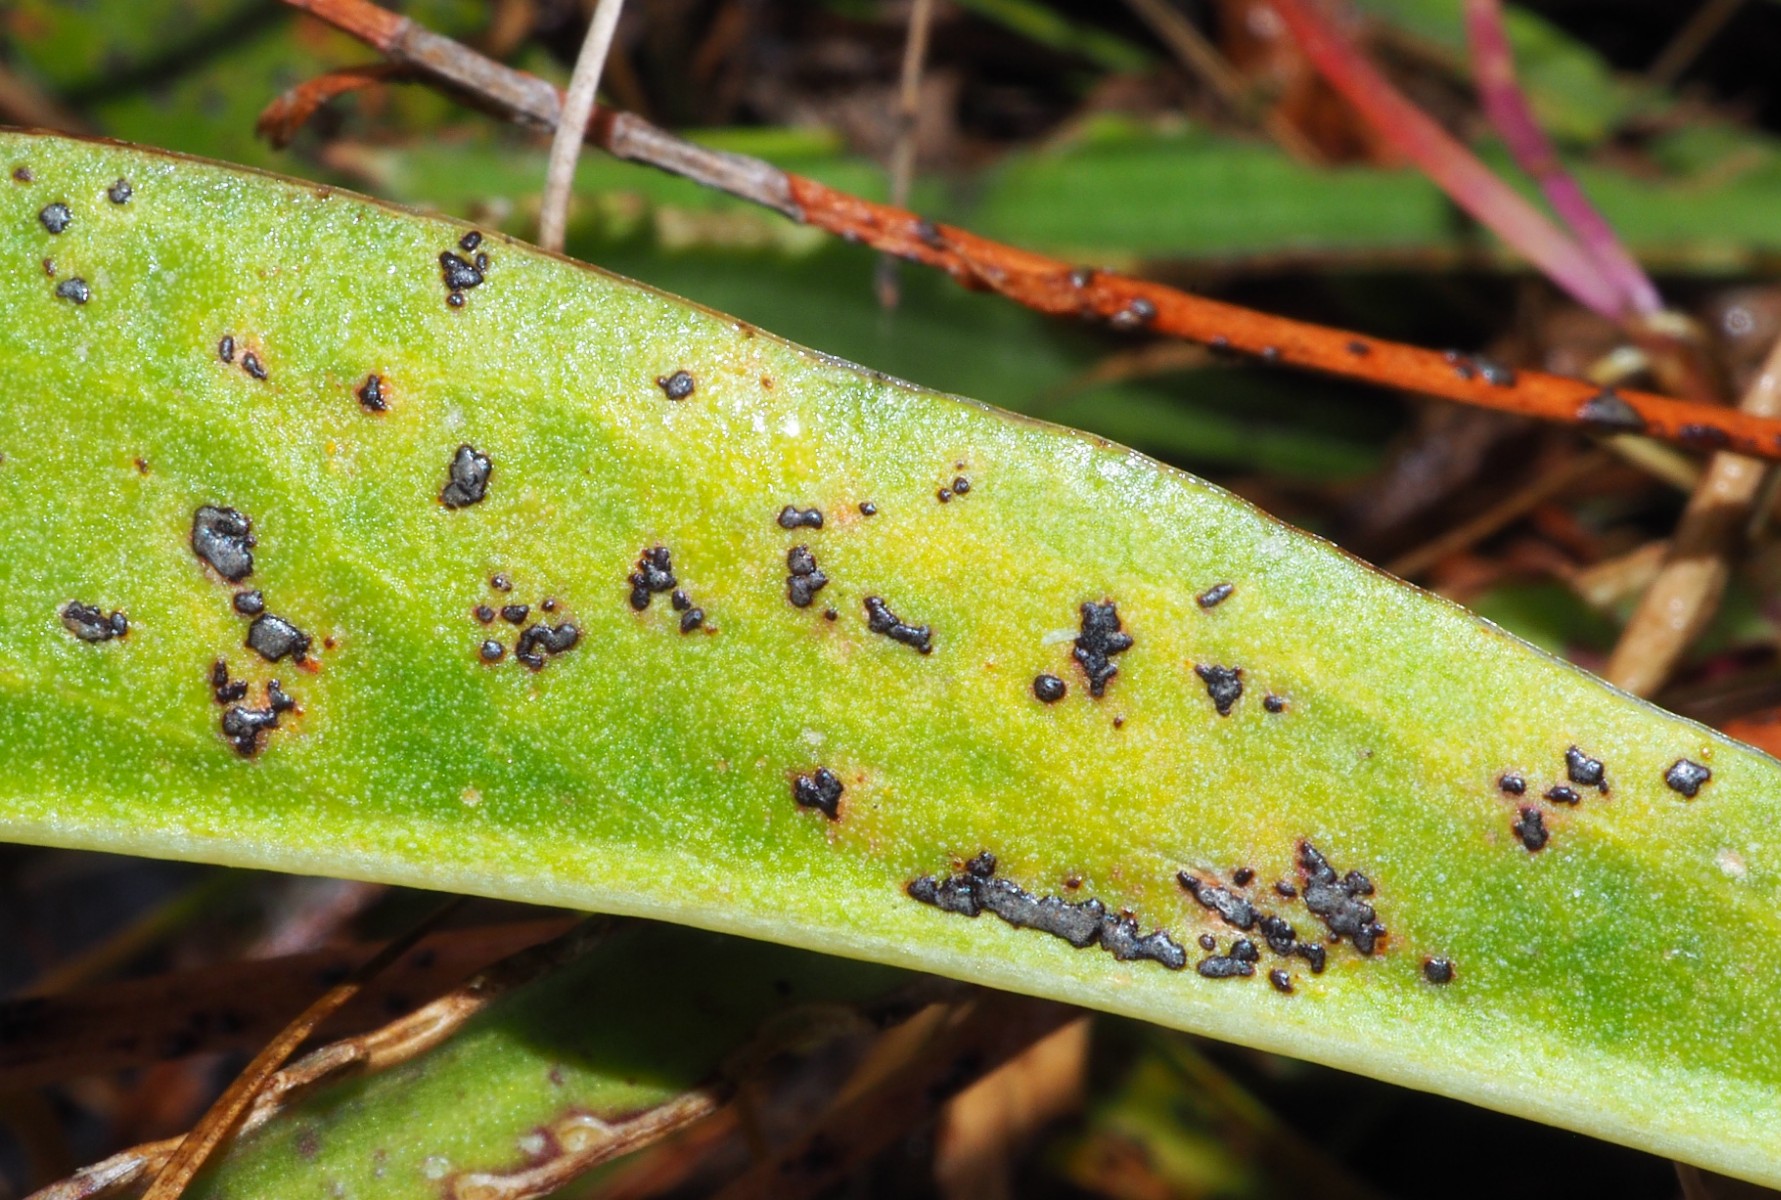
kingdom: Fungi
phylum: Basidiomycota
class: Pucciniomycetes
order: Pucciniales
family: Pucciniaceae
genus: Uromyces
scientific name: Uromyces limonii
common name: hindebæger-encellerust
